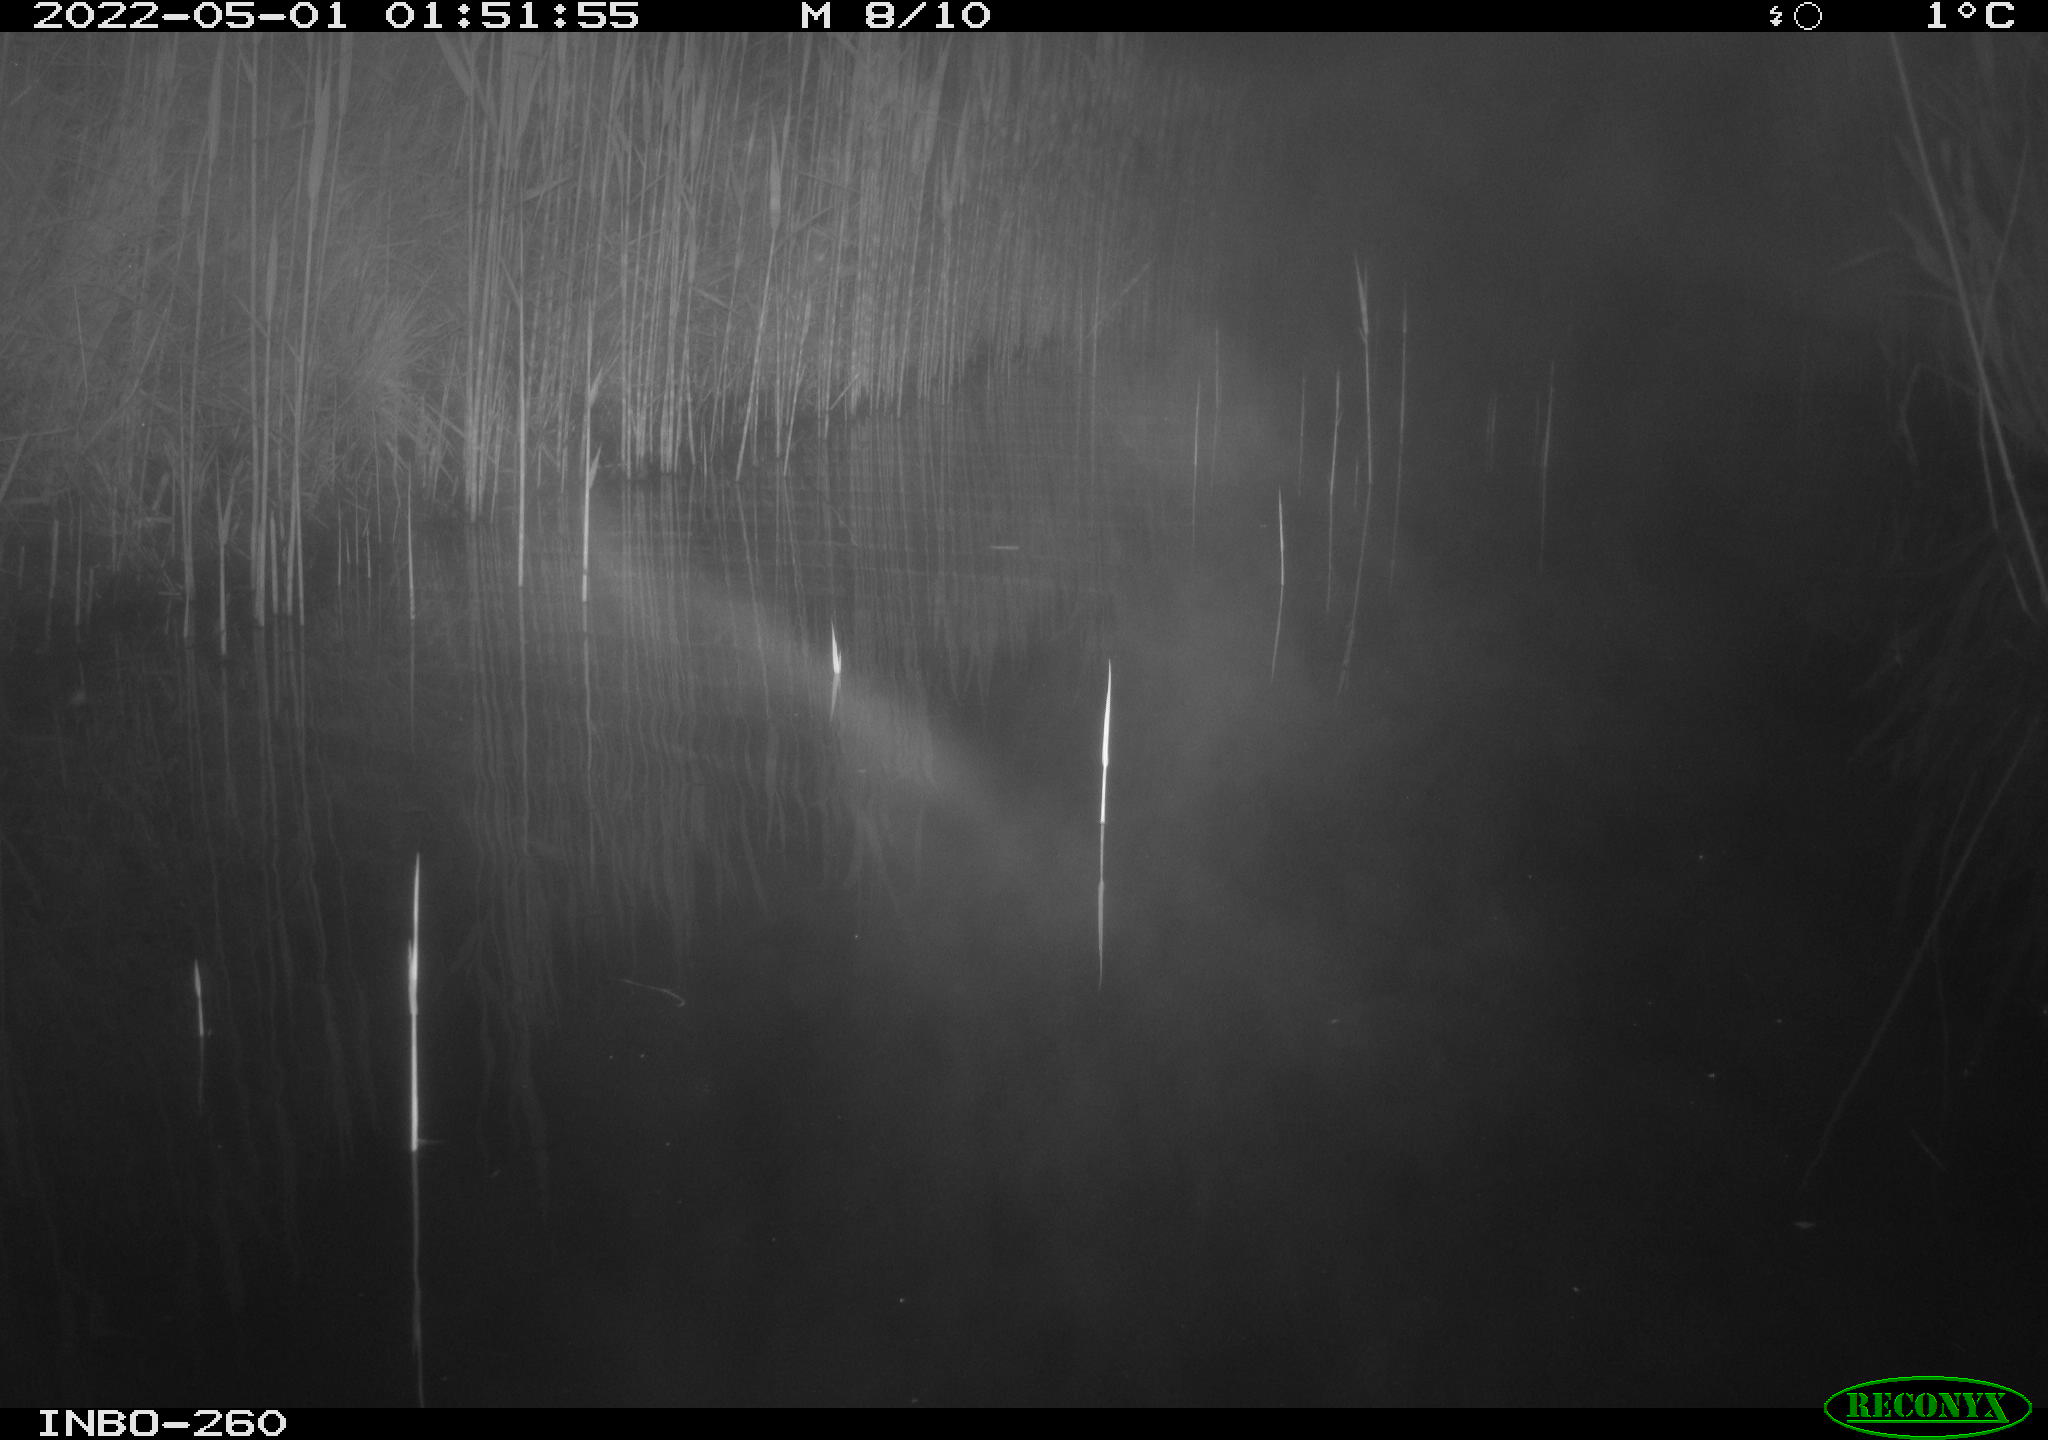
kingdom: Animalia
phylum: Chordata
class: Mammalia
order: Rodentia
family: Muridae
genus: Rattus
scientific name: Rattus norvegicus
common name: Brown rat
